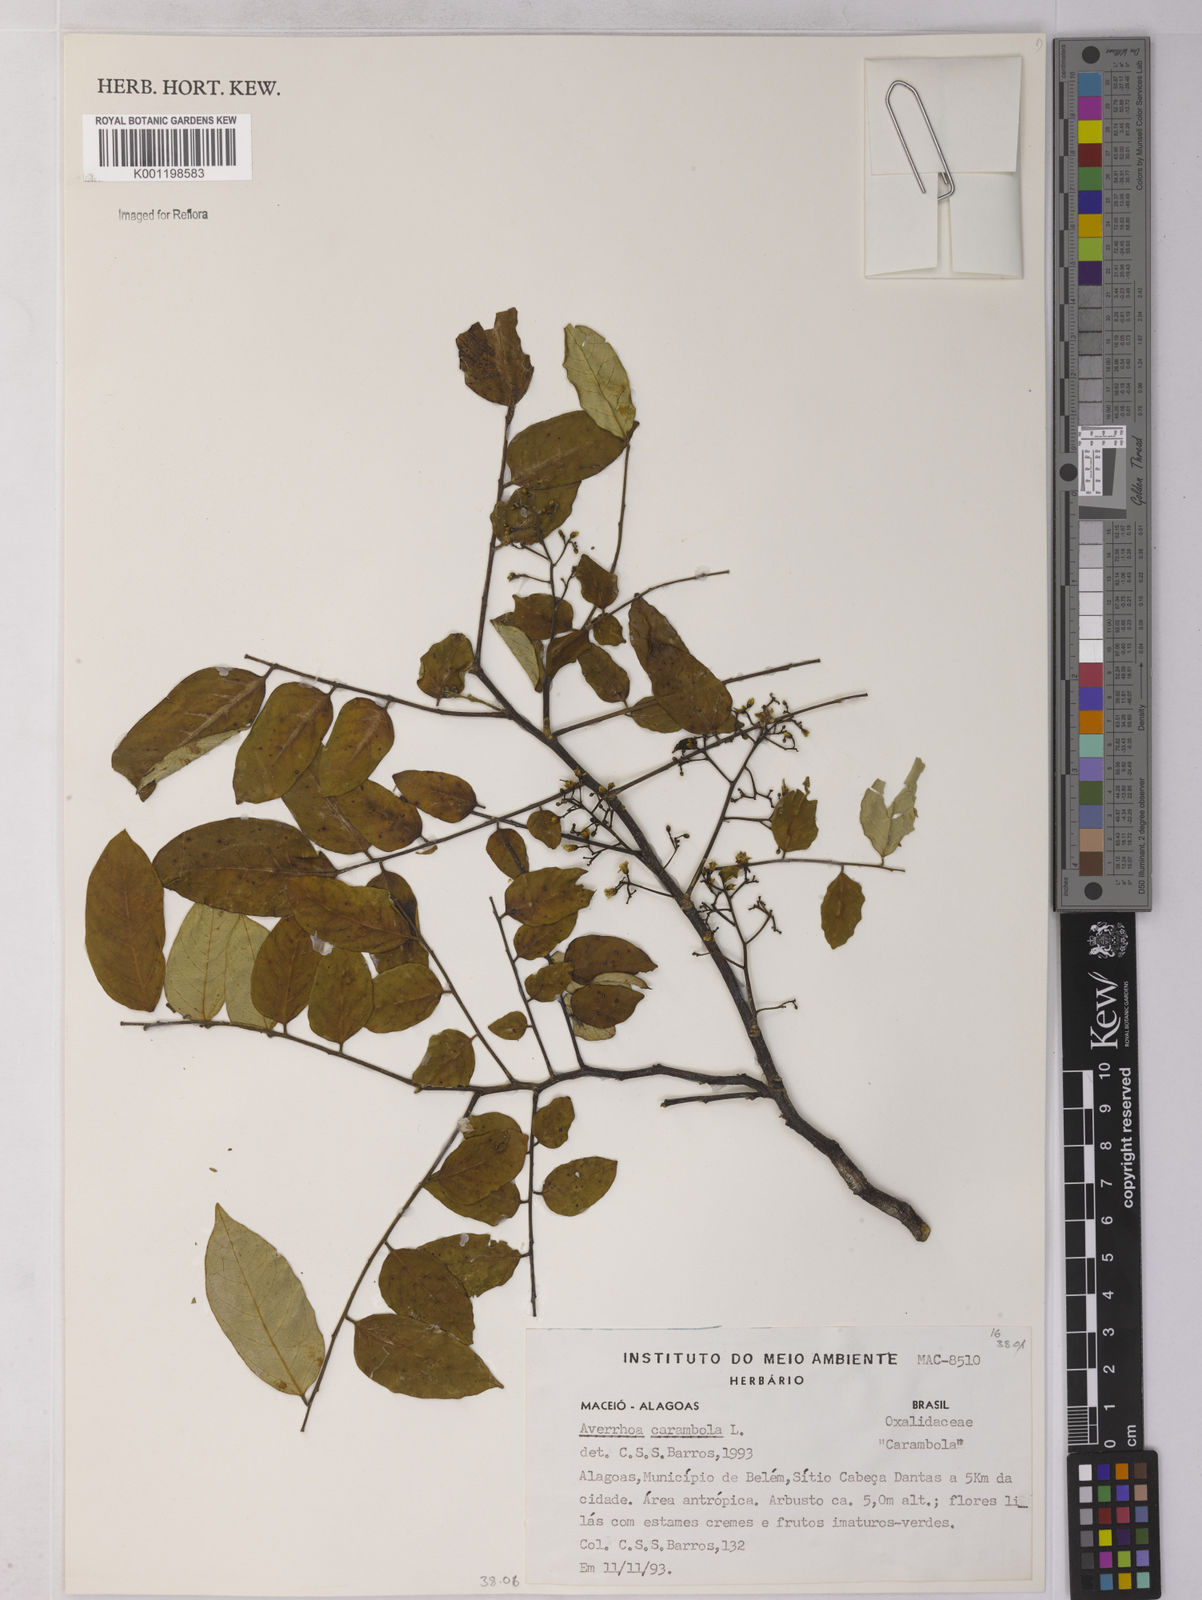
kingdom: Plantae
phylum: Tracheophyta
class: Magnoliopsida
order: Oxalidales
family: Oxalidaceae
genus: Averrhoa
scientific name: Averrhoa carambola
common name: Blimbing
